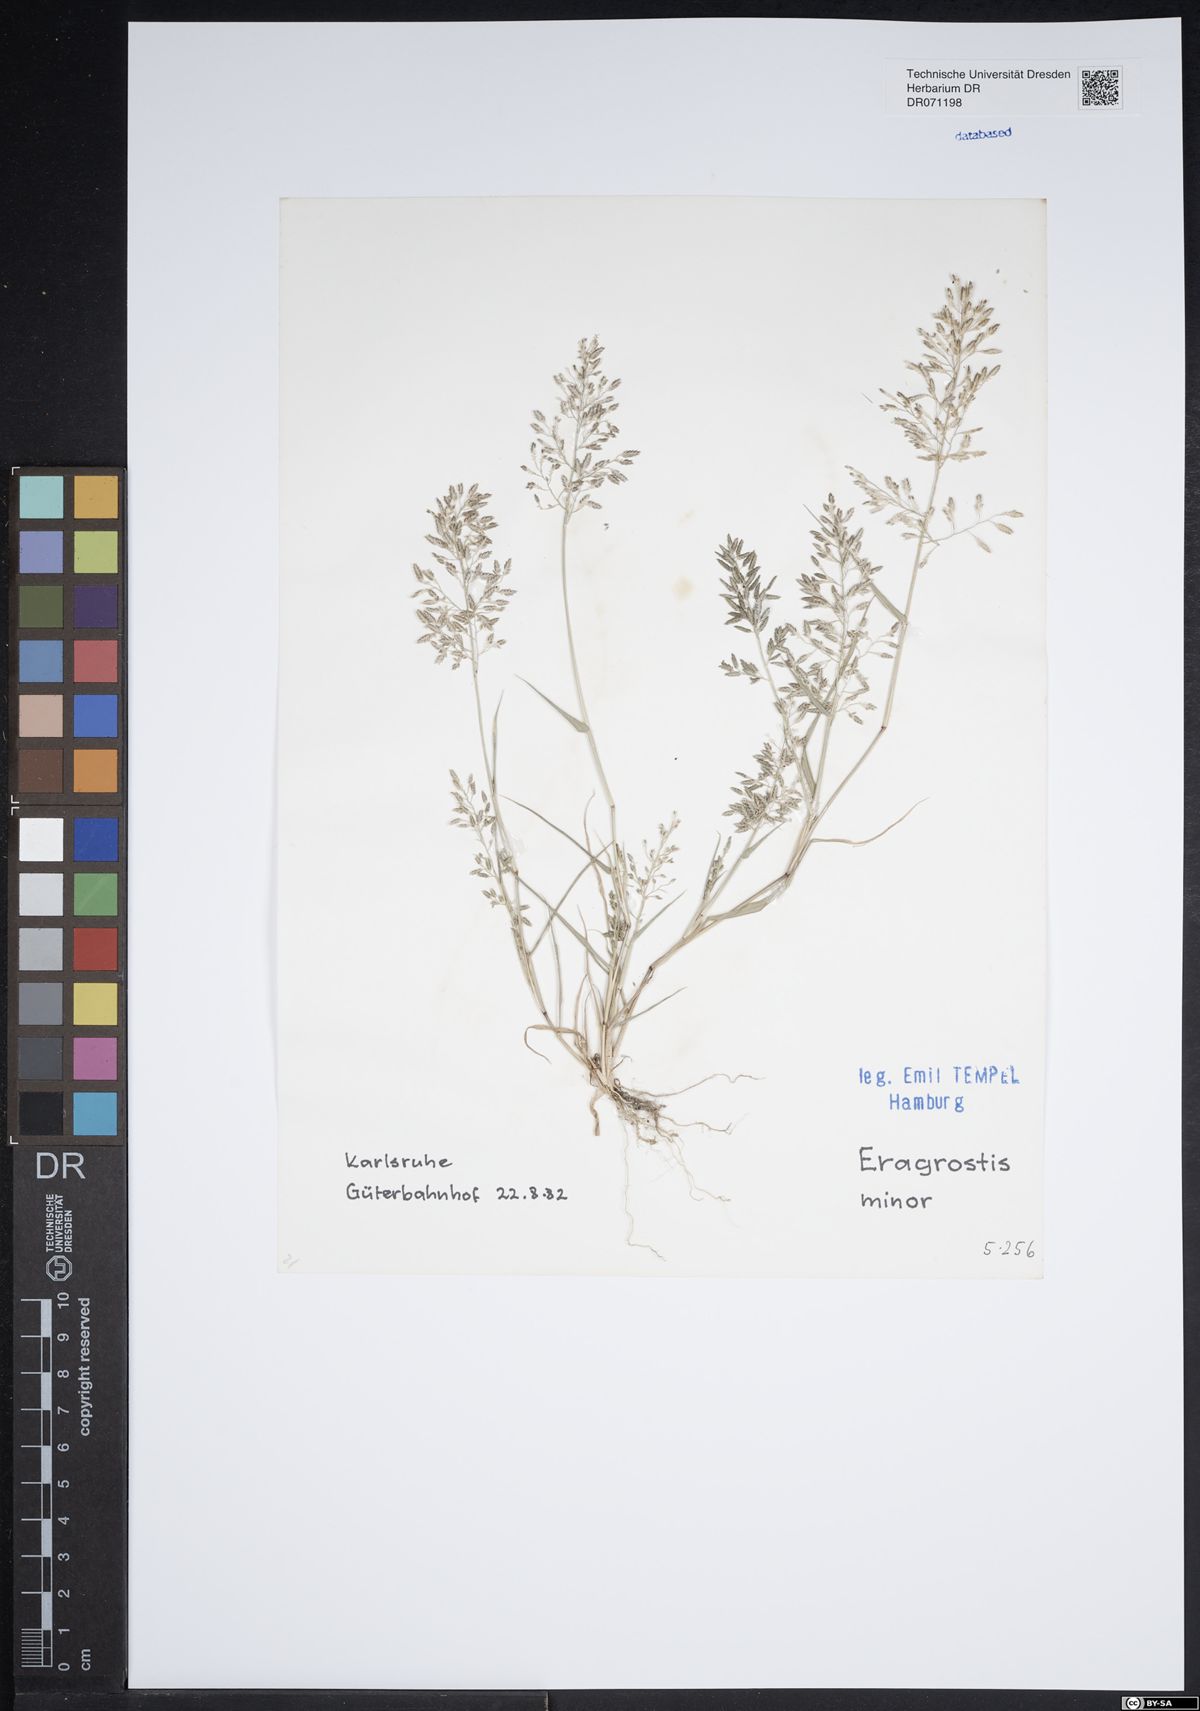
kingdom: Plantae
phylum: Tracheophyta
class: Liliopsida
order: Poales
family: Poaceae
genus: Eragrostis
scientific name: Eragrostis minor
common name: Small love-grass
